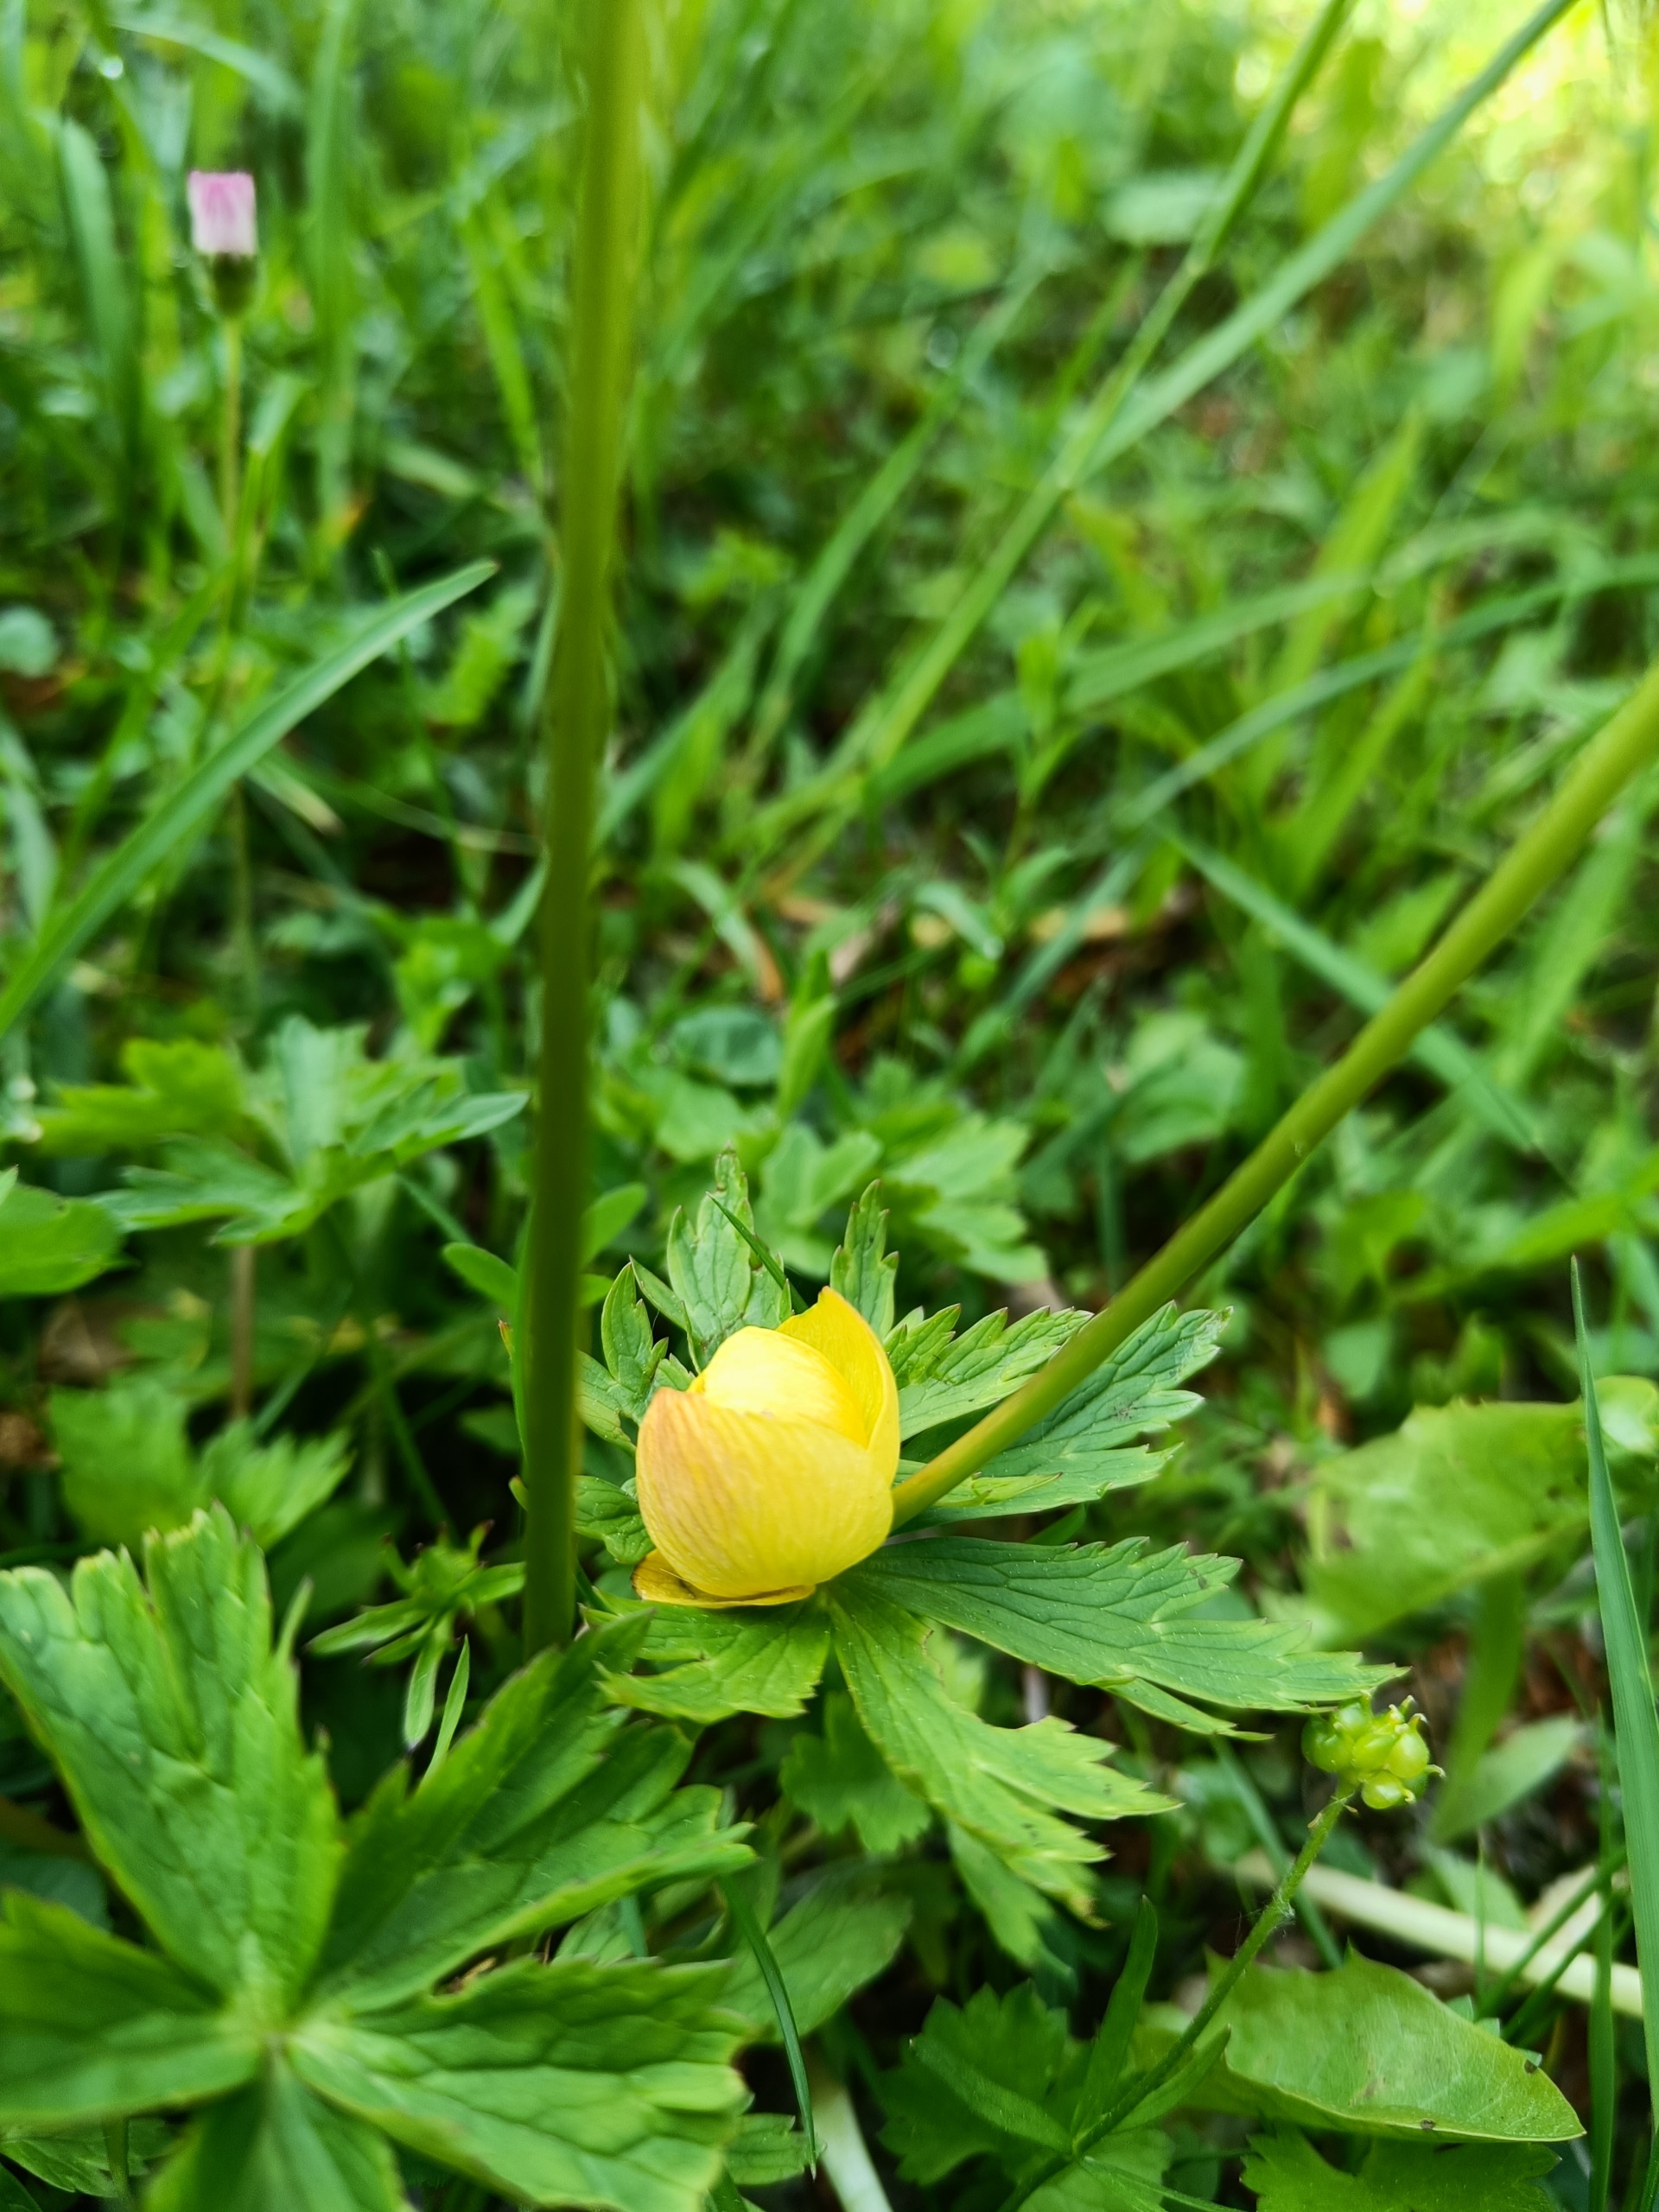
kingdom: Plantae
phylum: Tracheophyta
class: Magnoliopsida
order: Ranunculales
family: Ranunculaceae
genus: Trollius
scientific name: Trollius europaeus
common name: Engblomme
